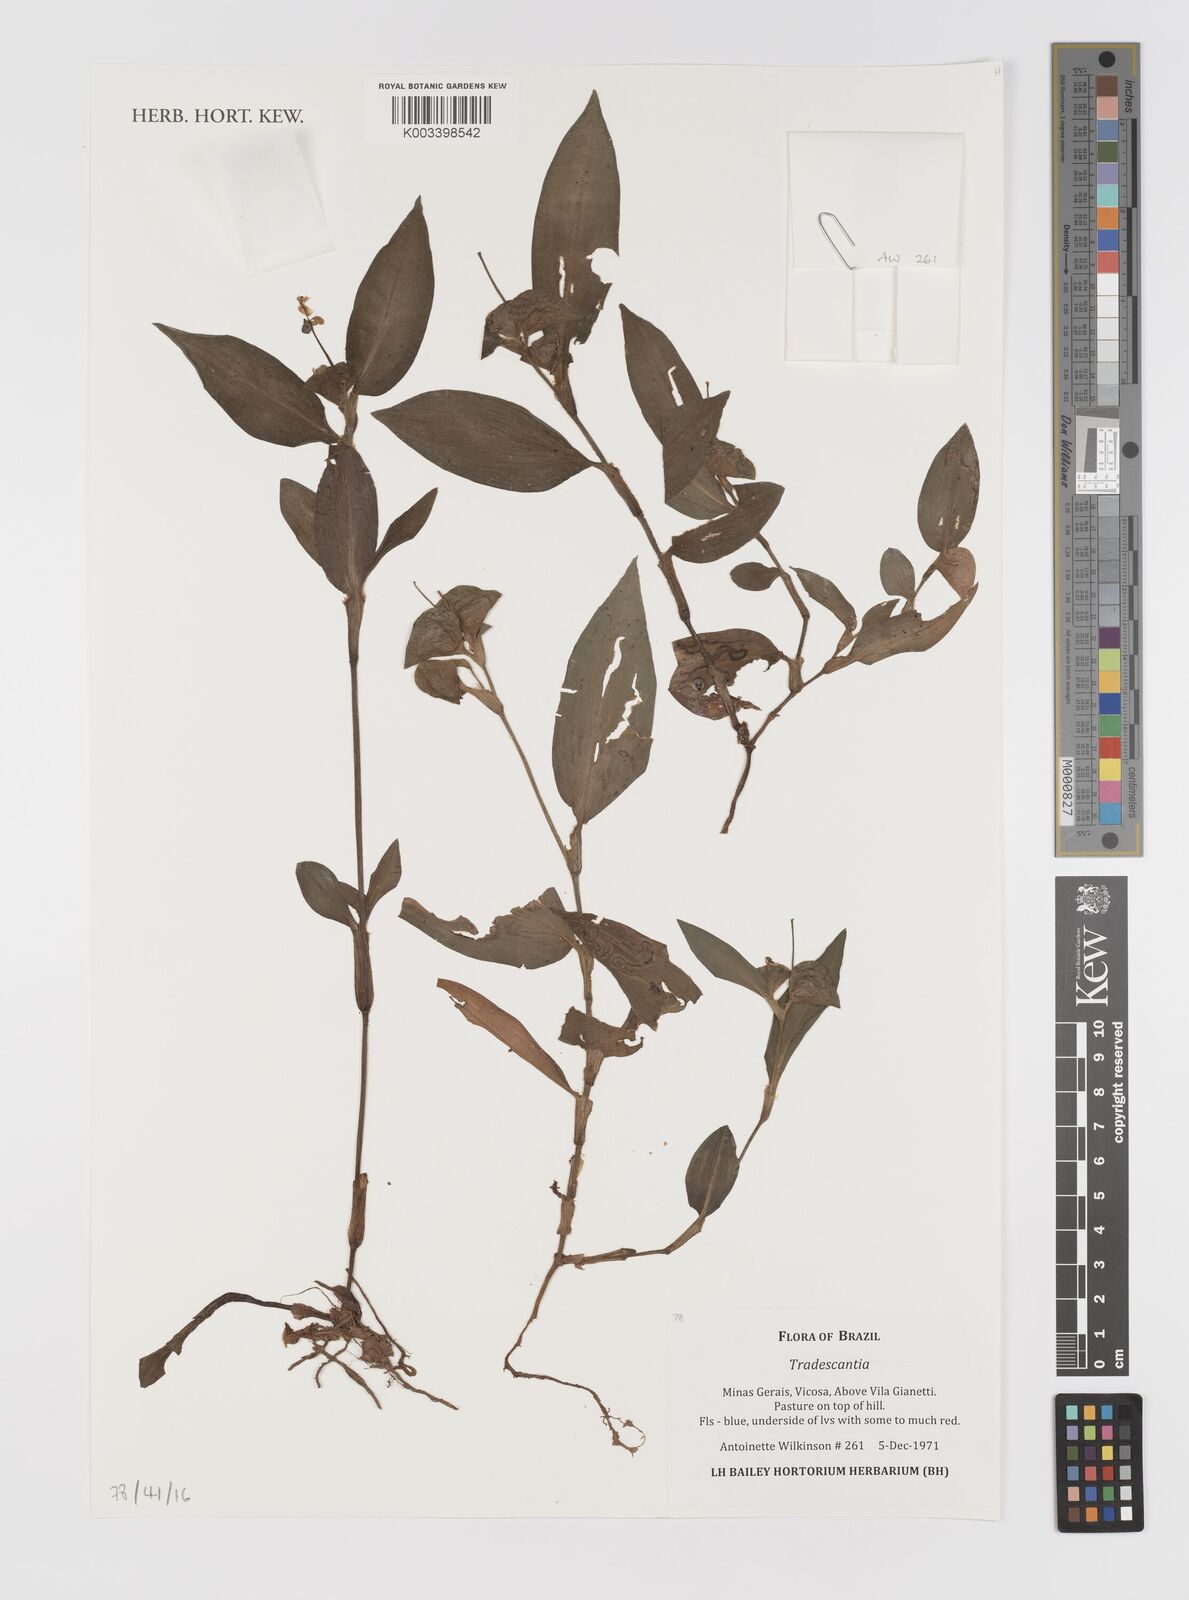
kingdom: Plantae
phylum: Tracheophyta
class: Liliopsida
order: Commelinales
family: Commelinaceae
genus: Tradescantia
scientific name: Tradescantia
